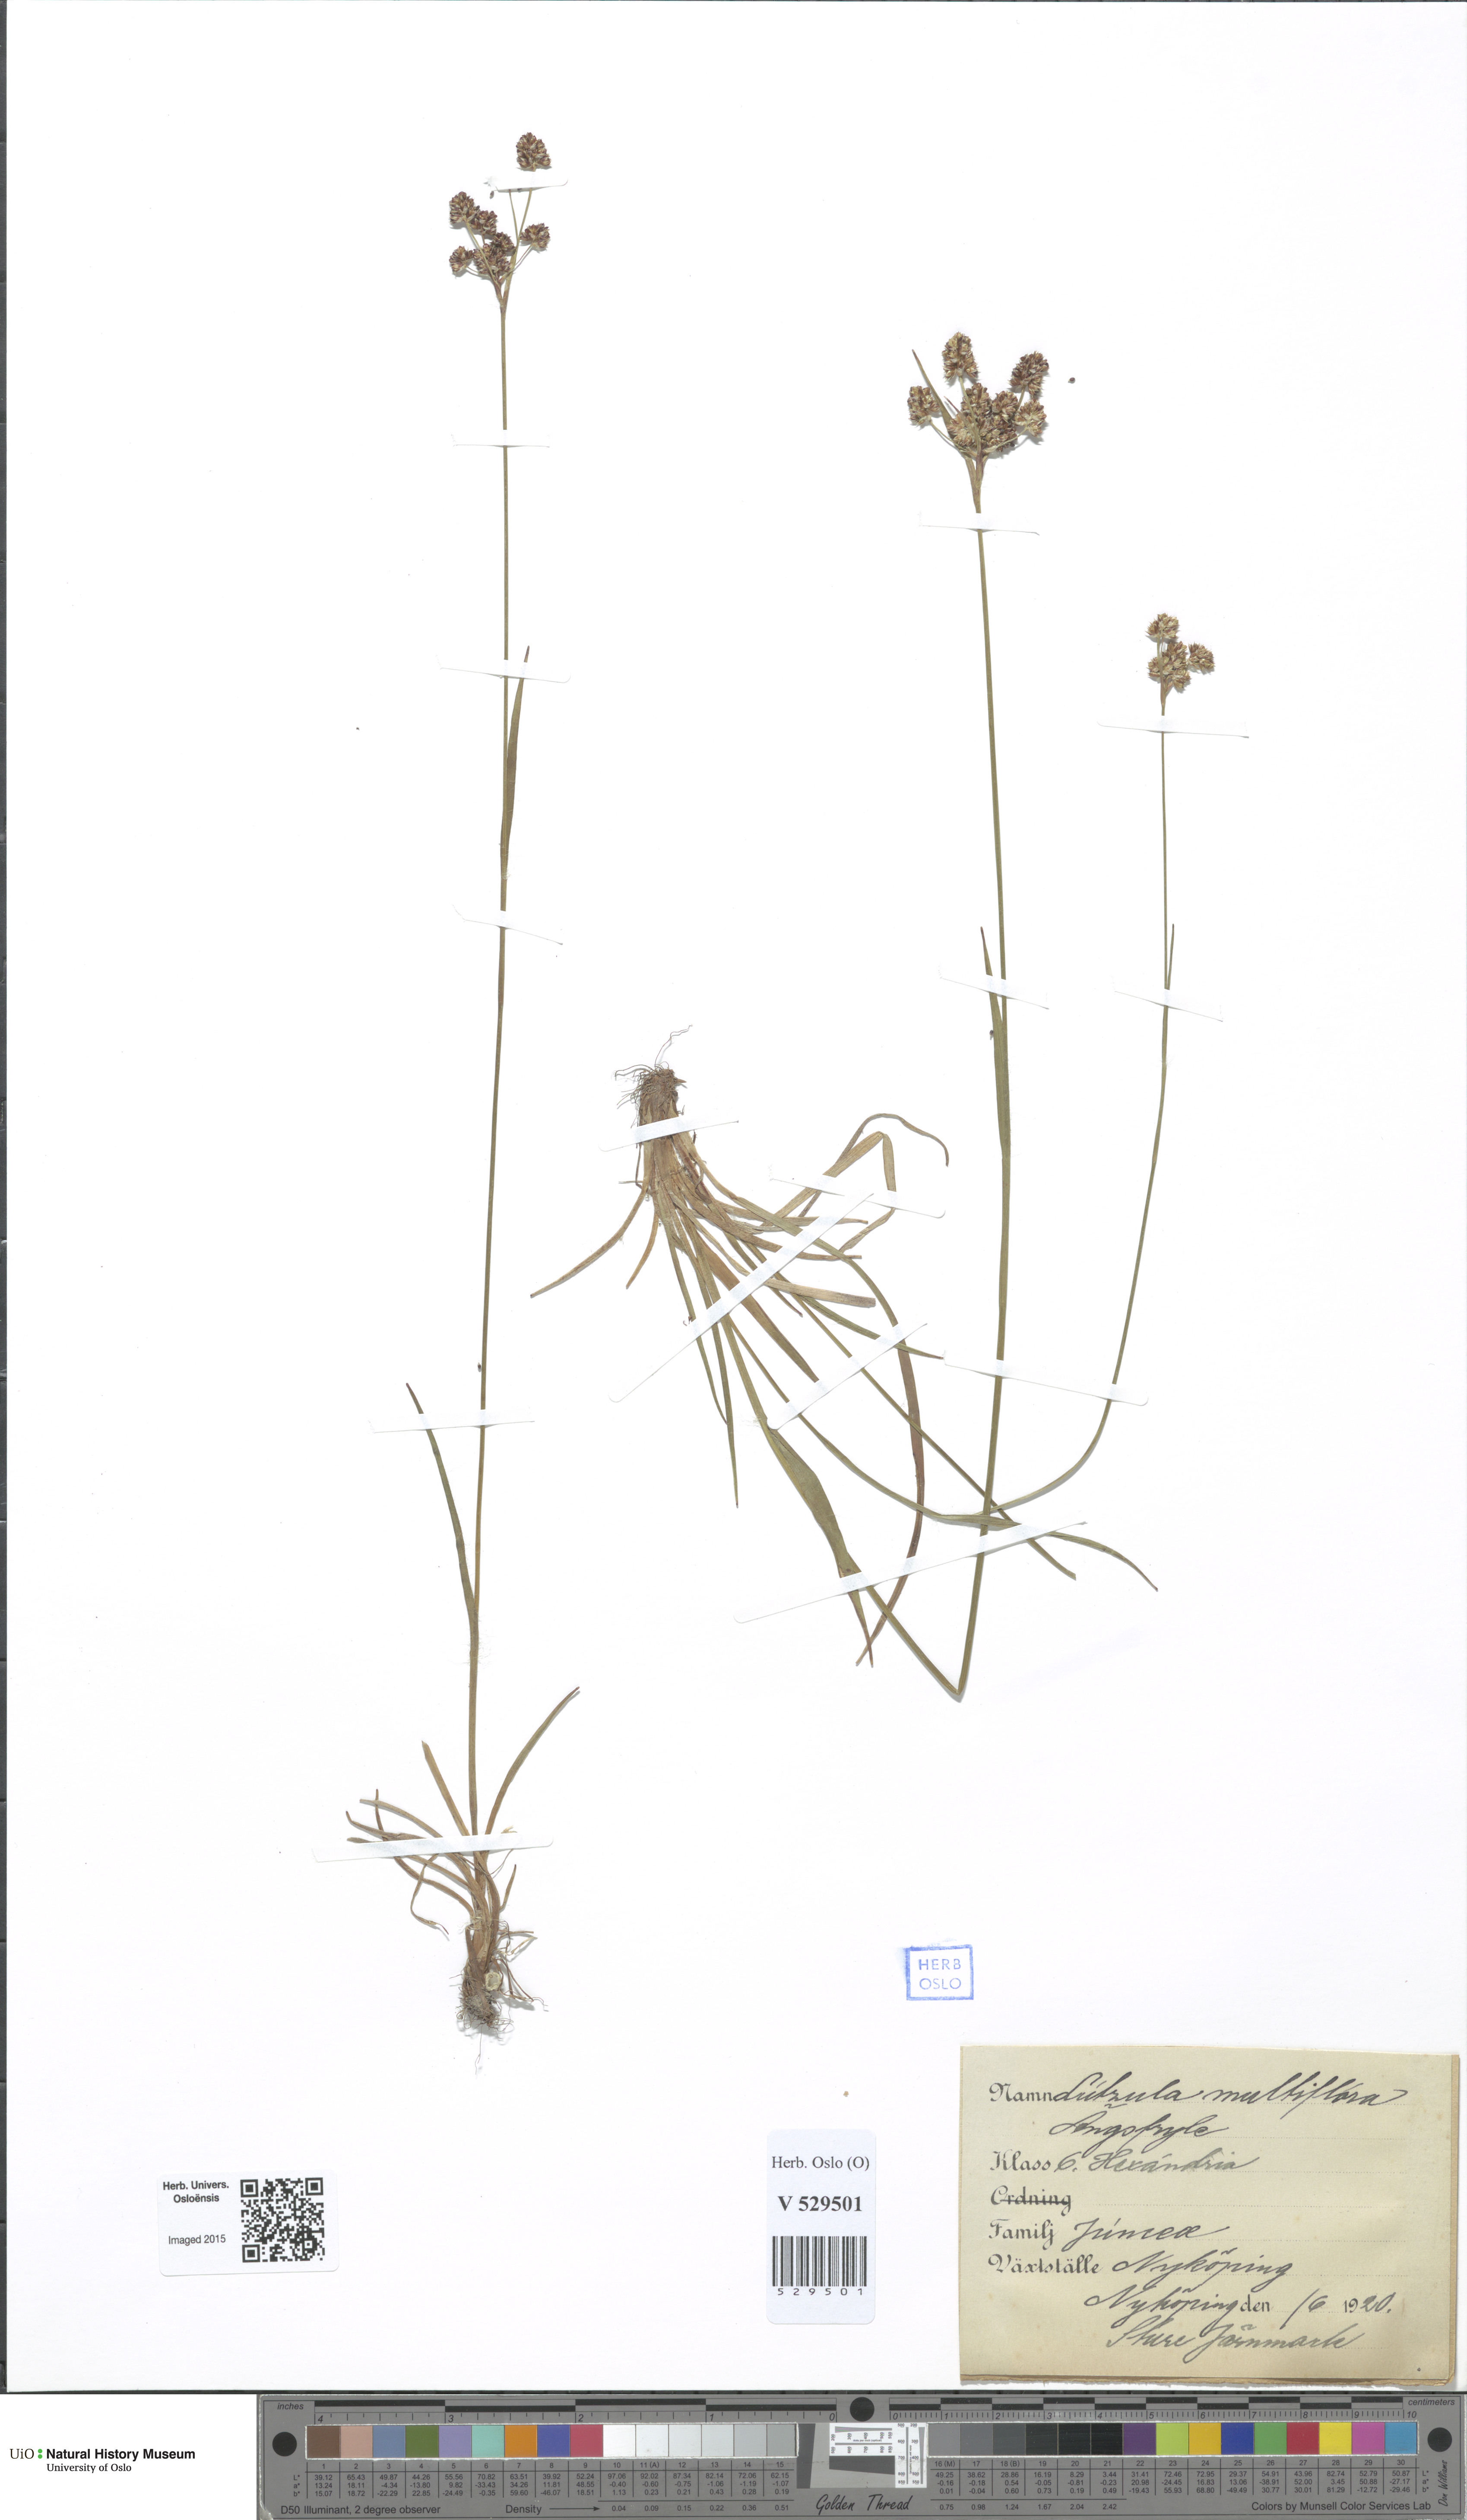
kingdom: Plantae
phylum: Tracheophyta
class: Liliopsida
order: Poales
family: Juncaceae
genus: Luzula
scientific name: Luzula multiflora
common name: Heath wood-rush
